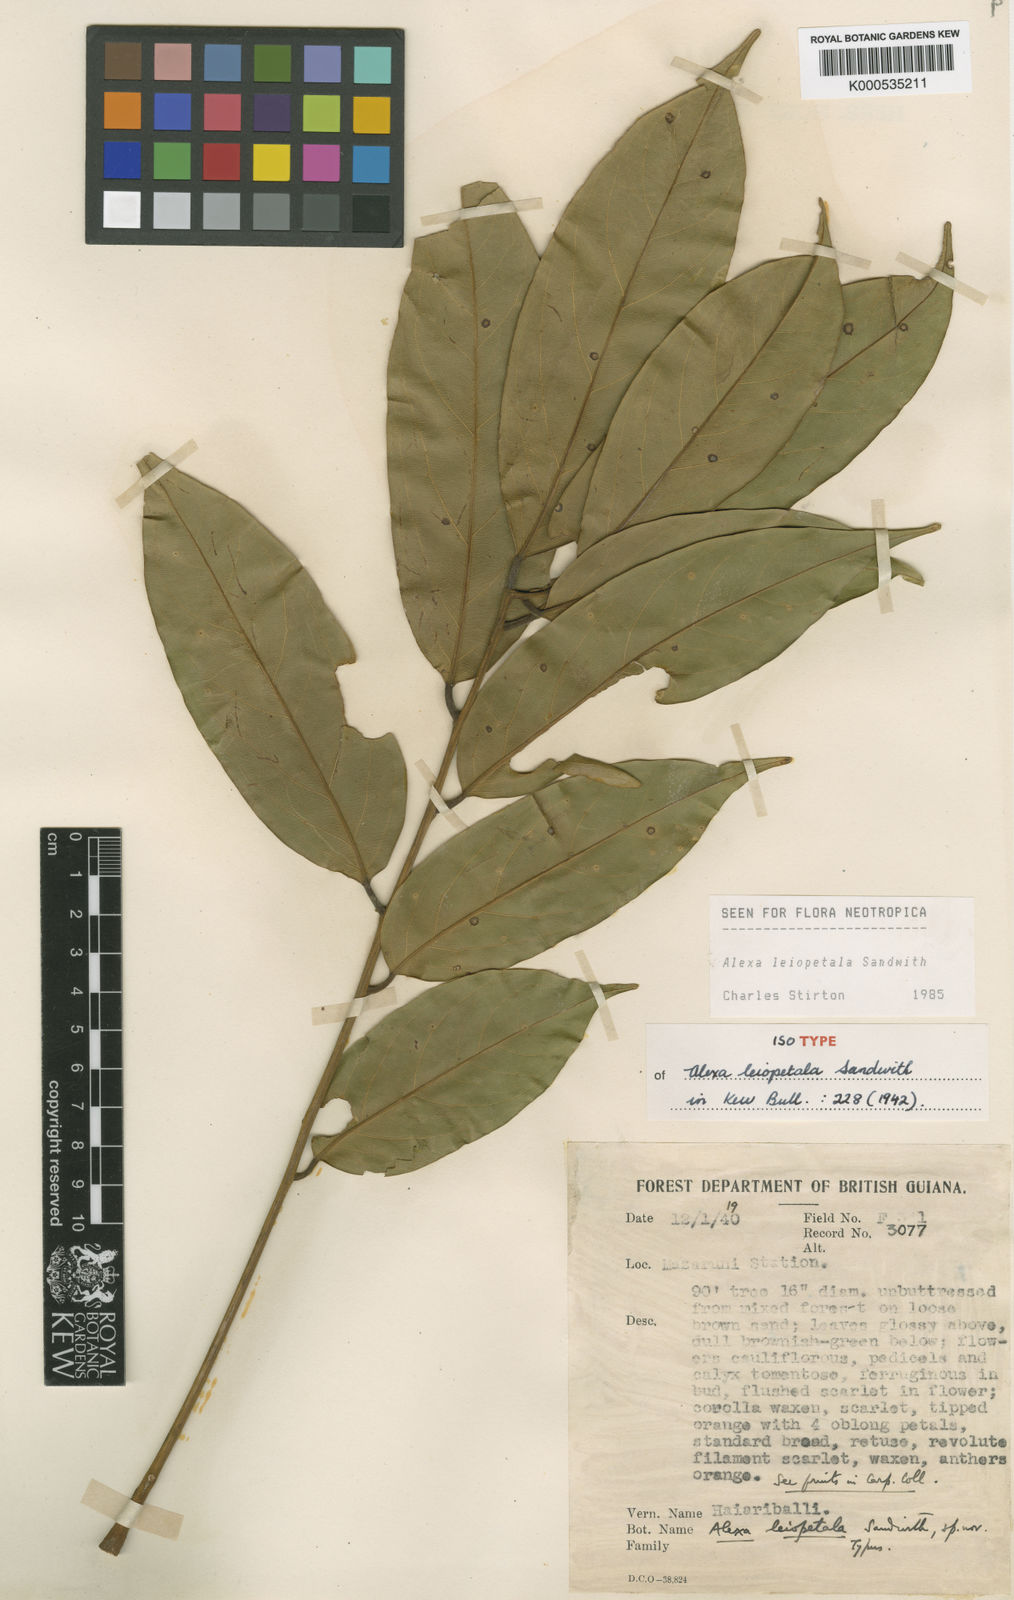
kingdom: Plantae
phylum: Tracheophyta
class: Magnoliopsida
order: Fabales
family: Fabaceae
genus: Alexa
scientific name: Alexa leiopetala
